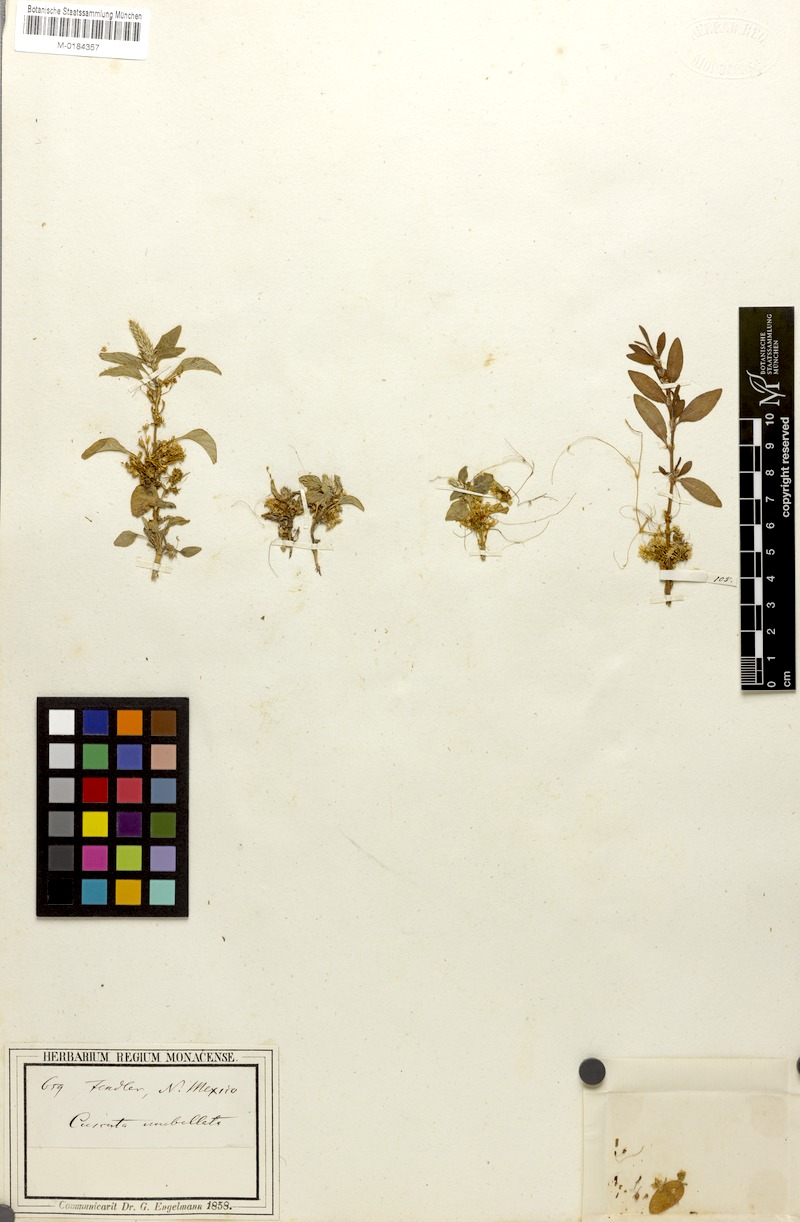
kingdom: Plantae
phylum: Tracheophyta
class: Magnoliopsida
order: Solanales
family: Convolvulaceae
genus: Cuscuta
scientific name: Cuscuta umbellata
